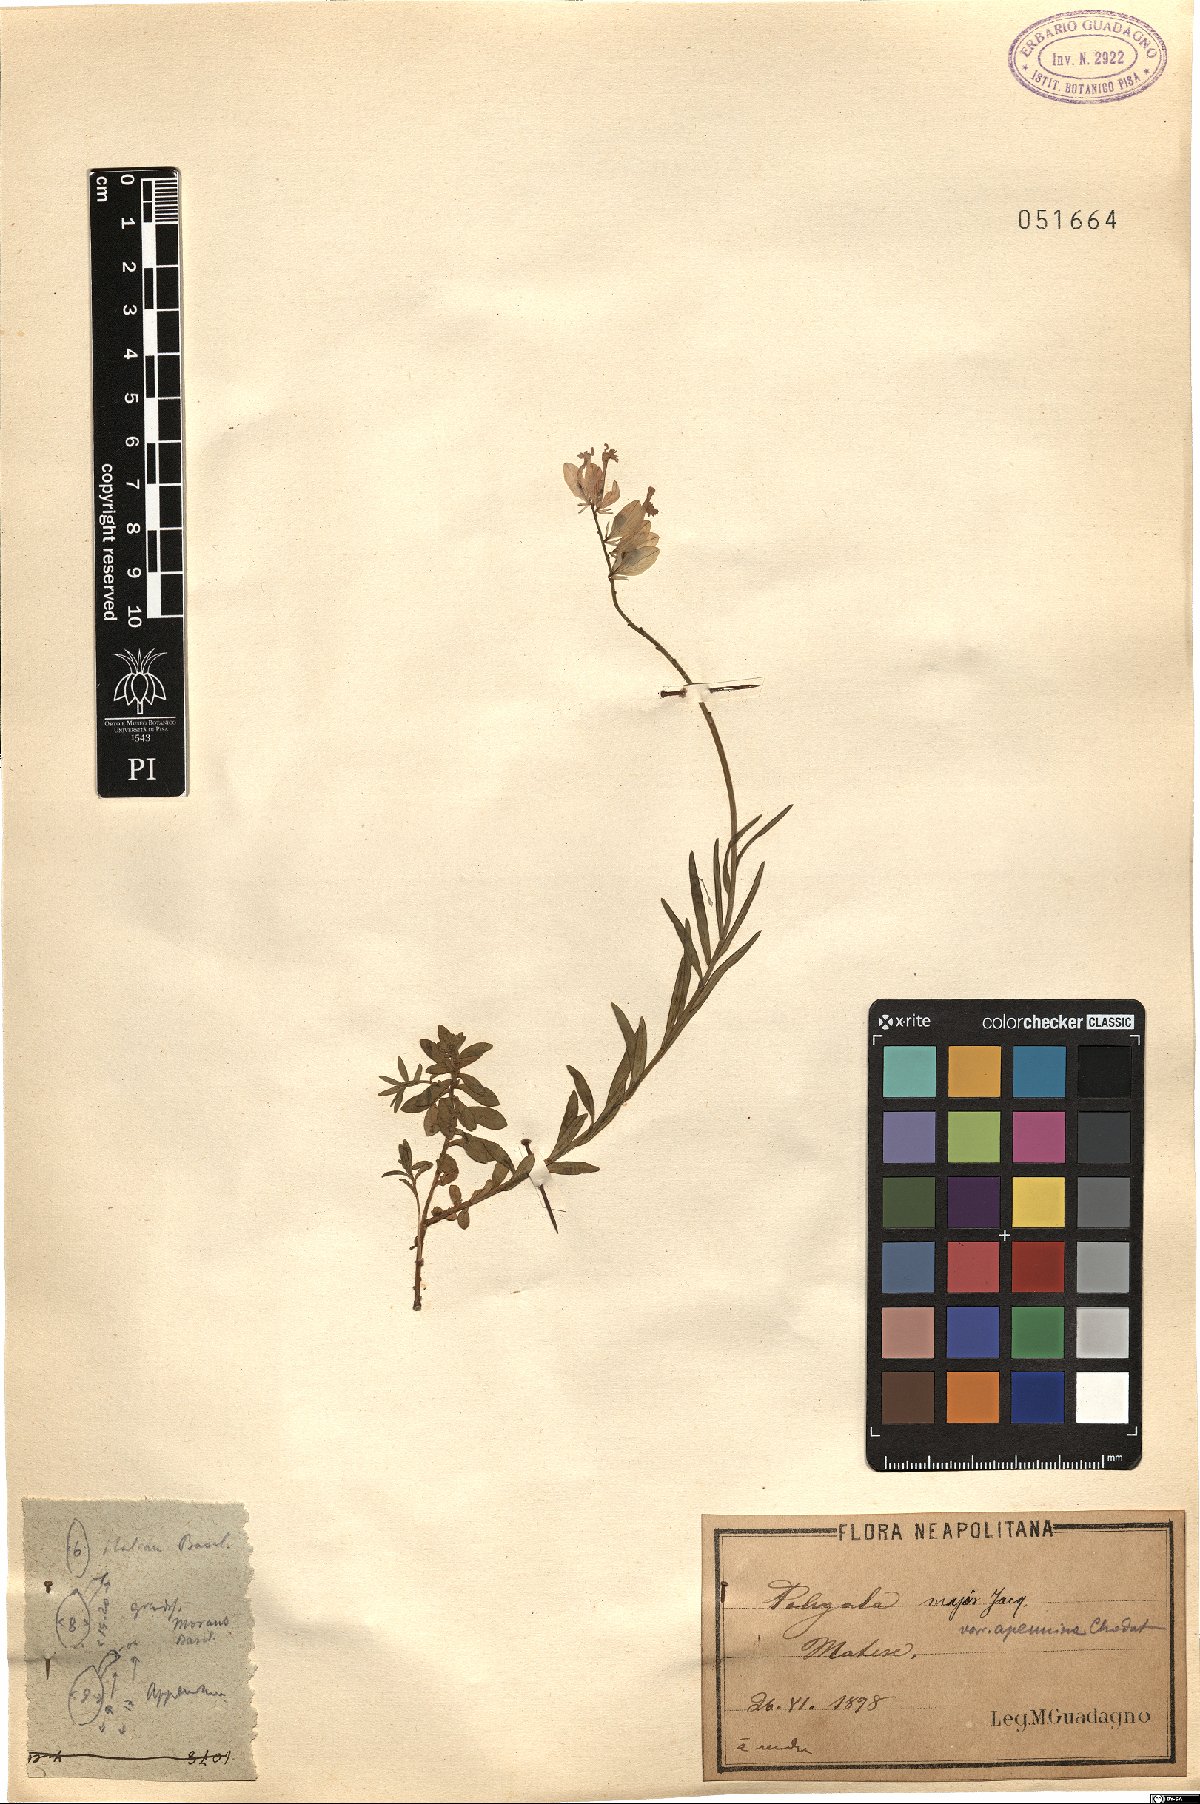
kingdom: Plantae
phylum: Tracheophyta
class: Magnoliopsida
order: Fabales
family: Polygalaceae
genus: Polygala
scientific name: Polygala major
